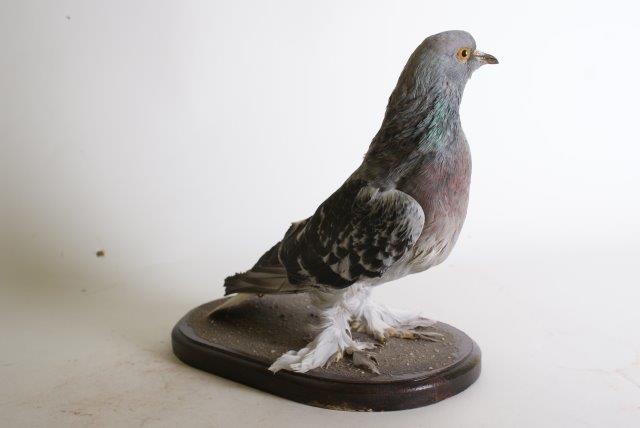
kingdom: Animalia
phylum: Chordata
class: Aves
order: Columbiformes
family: Columbidae
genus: Columba
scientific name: Columba livia
